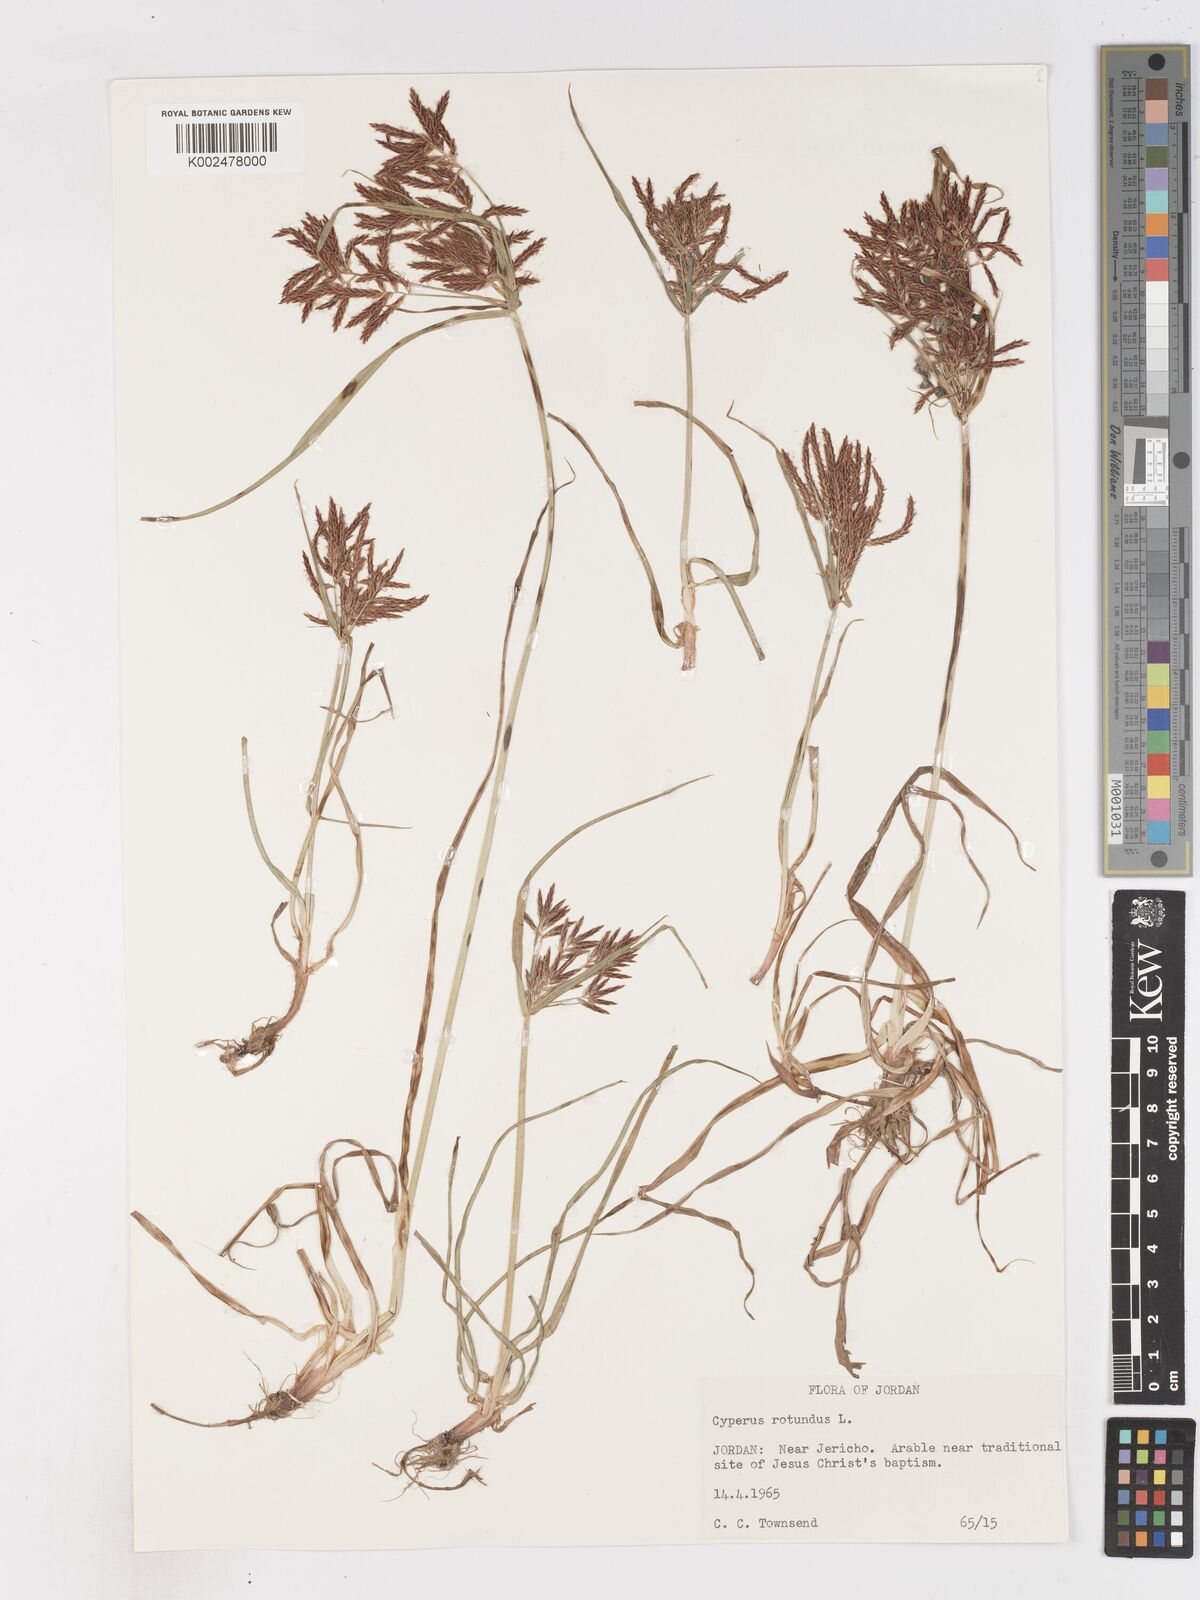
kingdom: Plantae
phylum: Tracheophyta
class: Liliopsida
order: Poales
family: Cyperaceae
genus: Cyperus
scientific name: Cyperus rotundus
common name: Nutgrass
